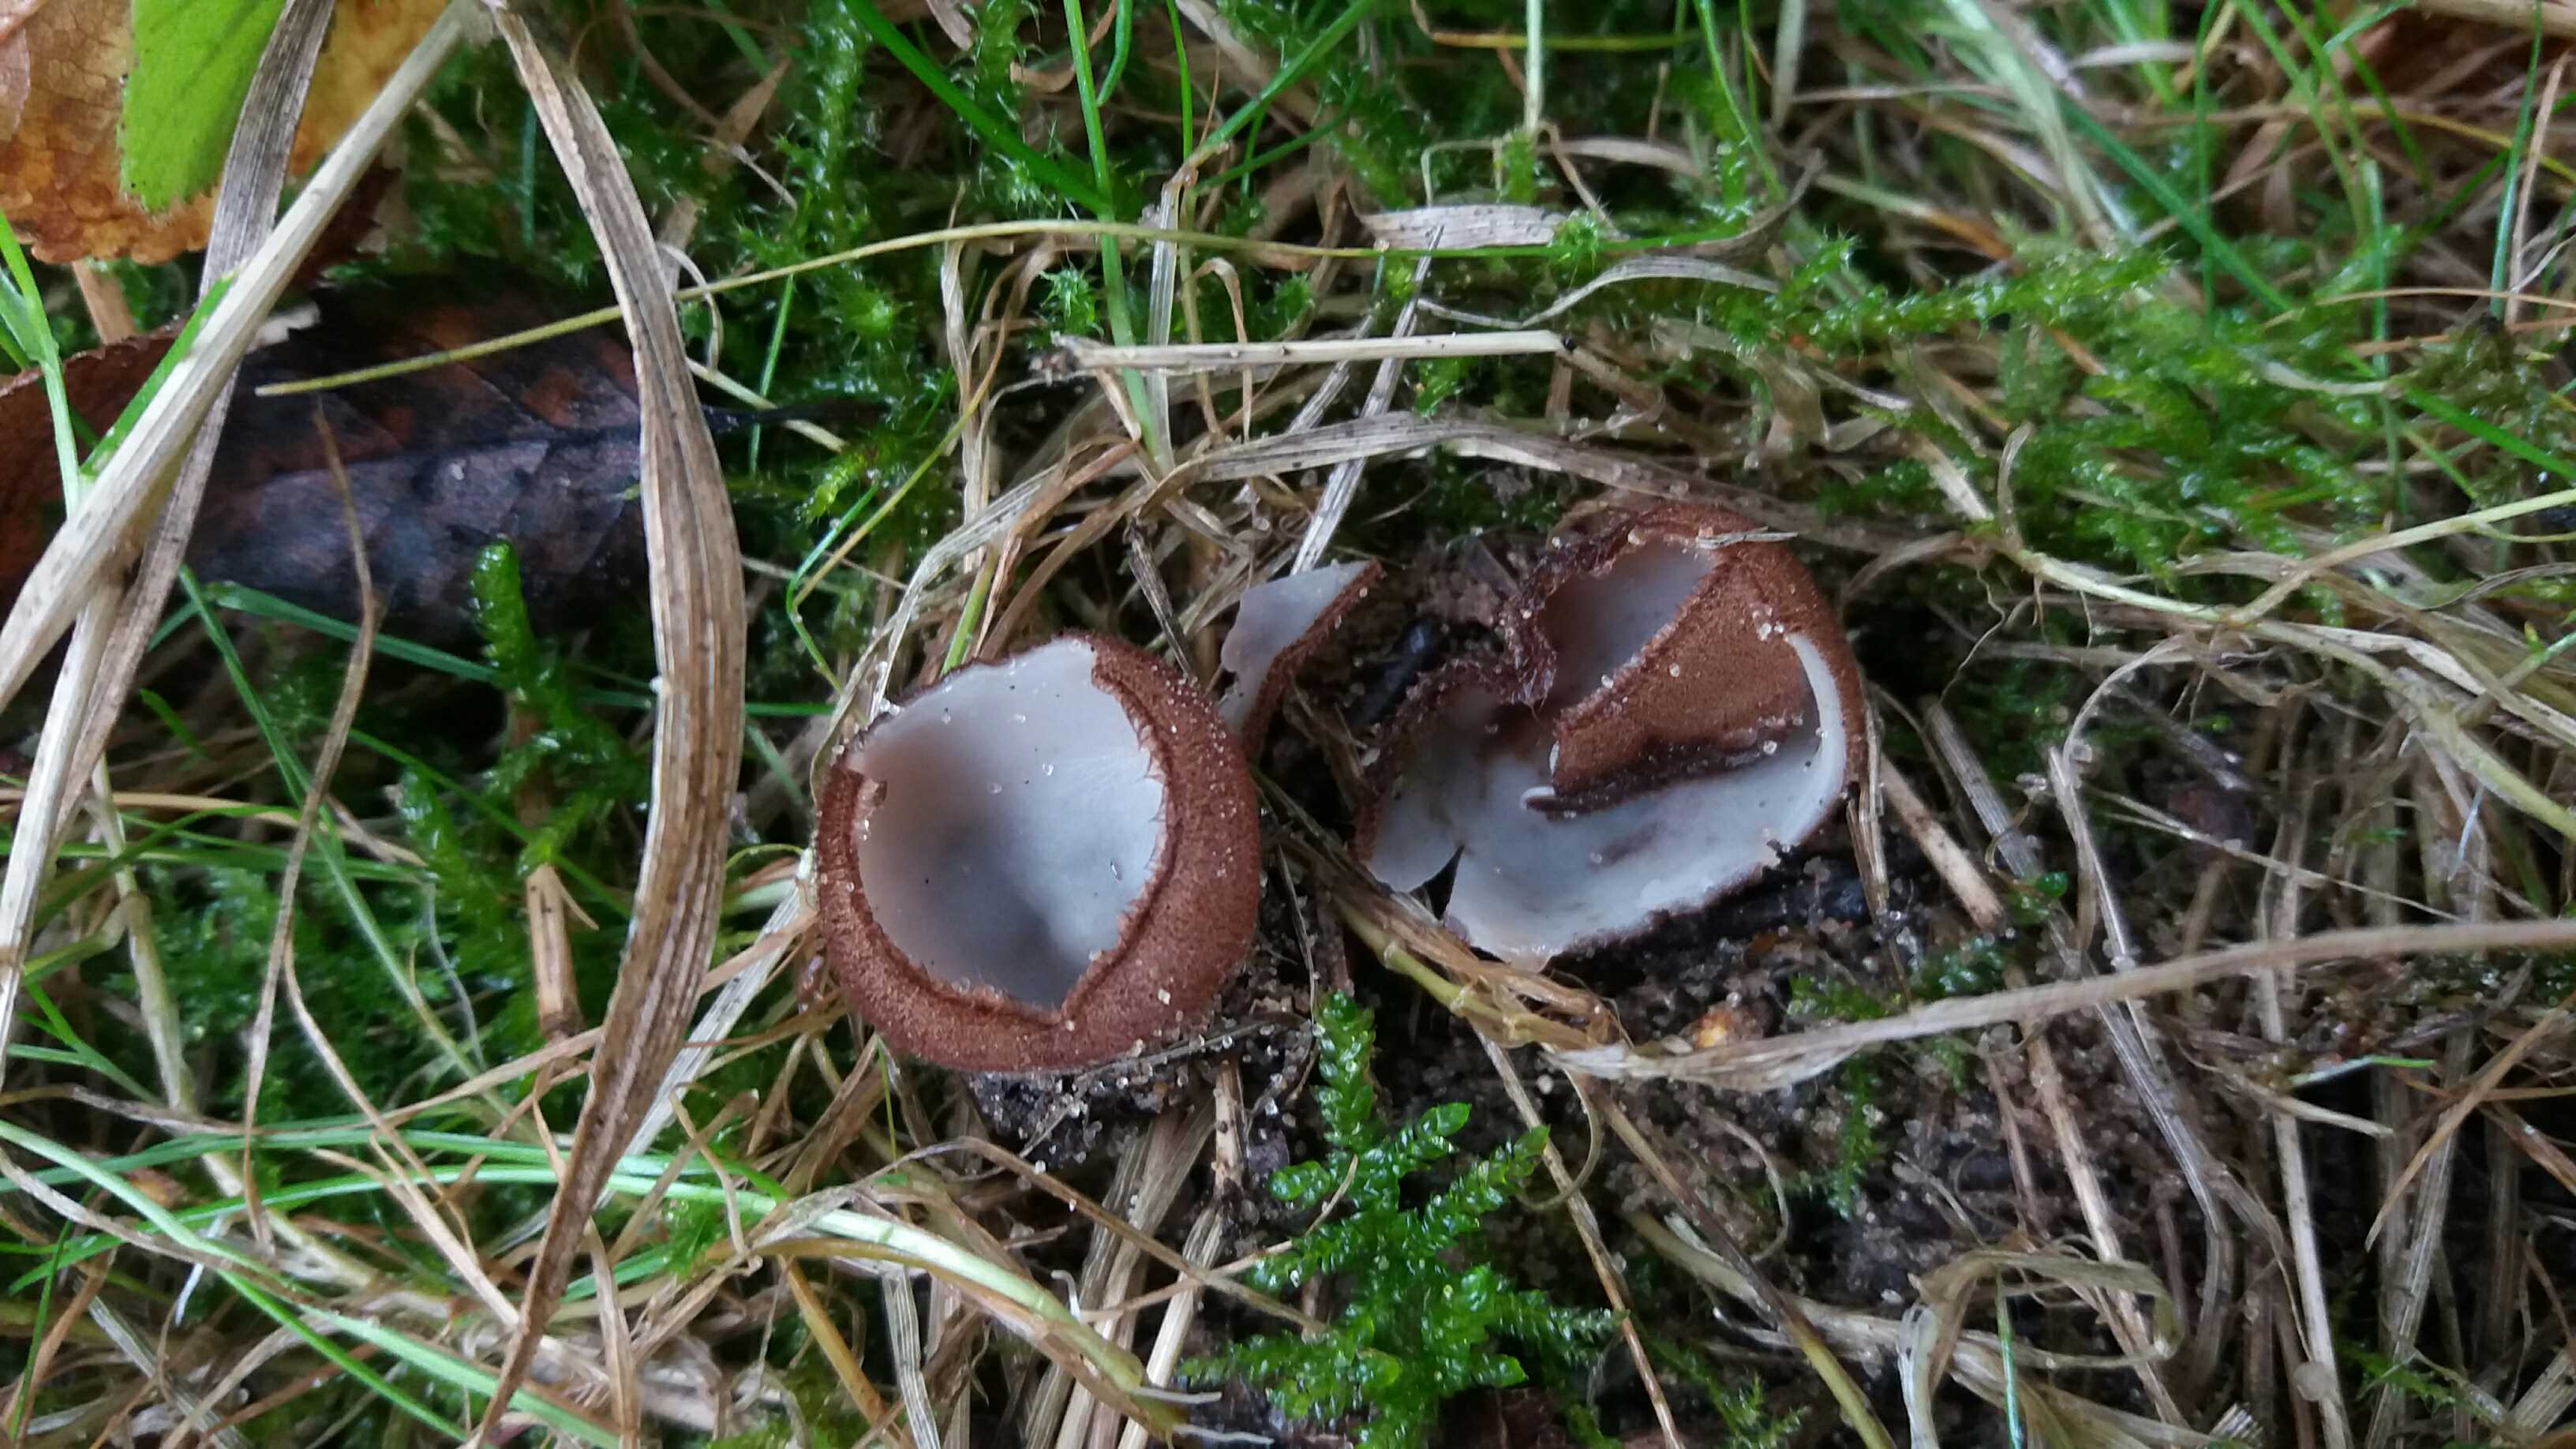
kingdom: Fungi
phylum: Ascomycota
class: Pezizomycetes
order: Pezizales
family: Pyronemataceae
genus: Humaria
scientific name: Humaria hemisphaerica
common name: halvkugleformet børstebæger
